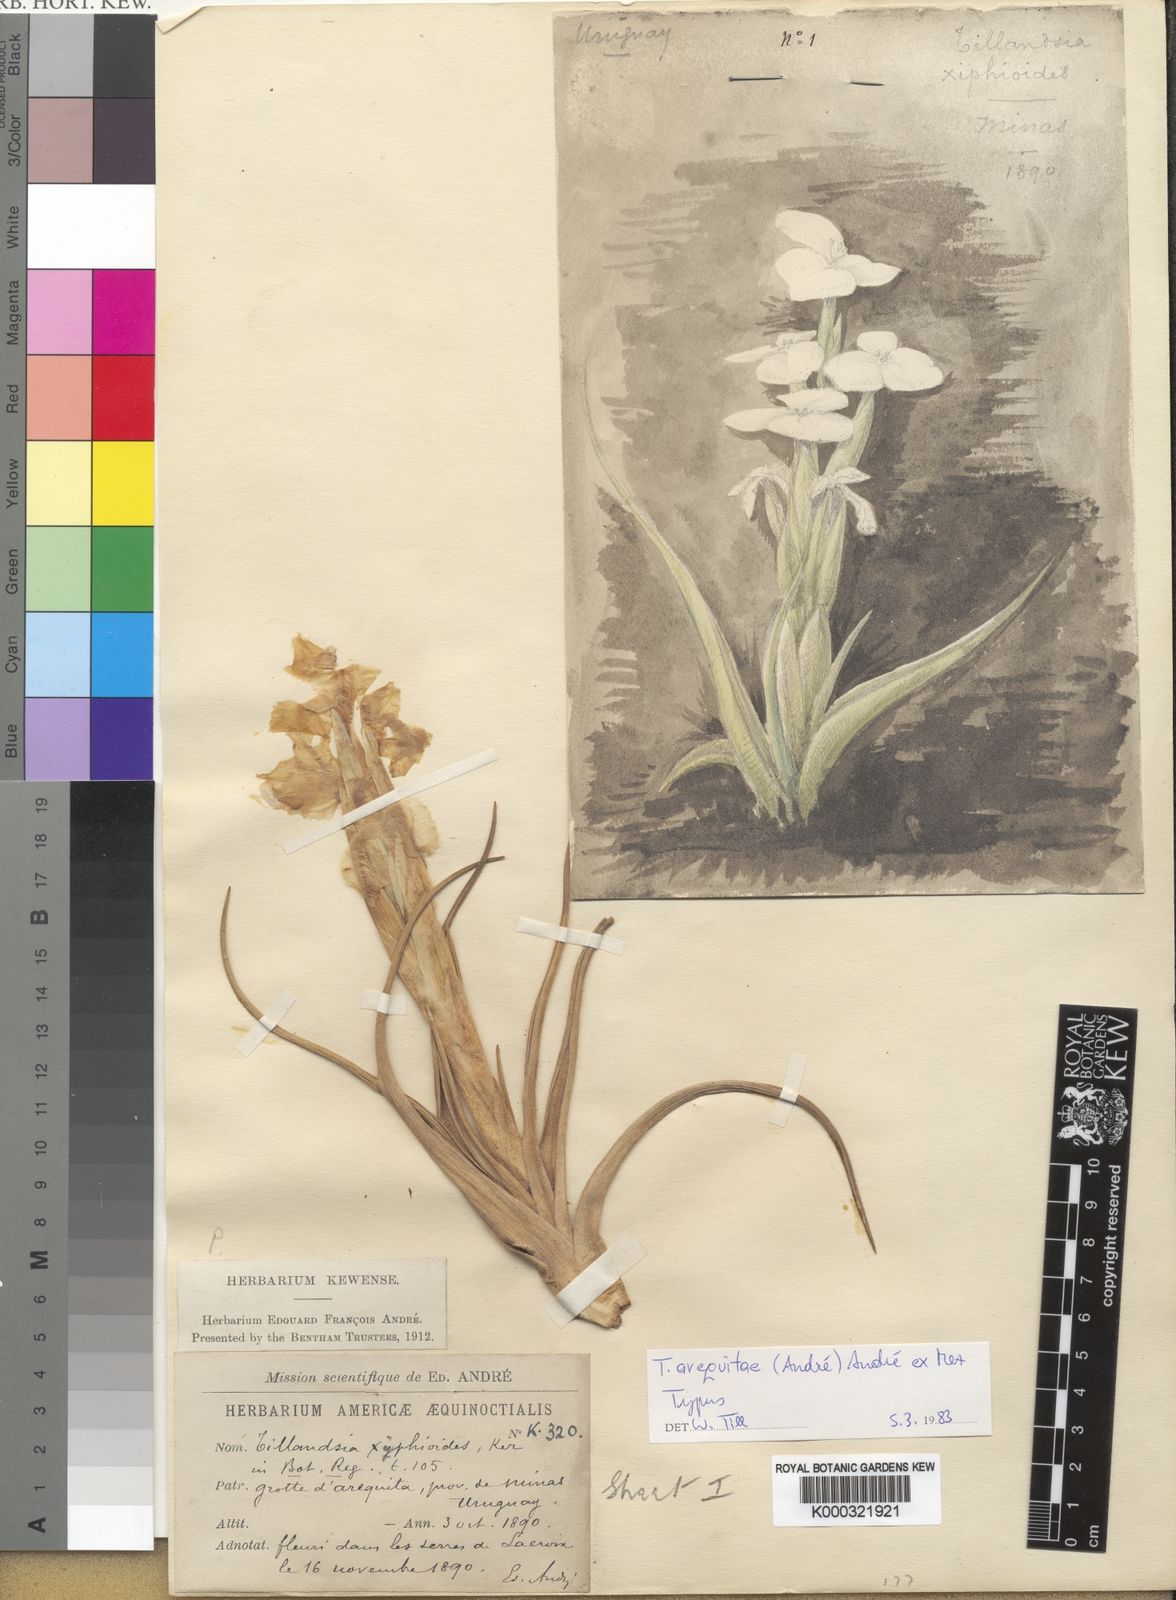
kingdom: Plantae
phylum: Tracheophyta
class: Liliopsida
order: Poales
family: Bromeliaceae
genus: Tillandsia
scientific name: Tillandsia arequitae
